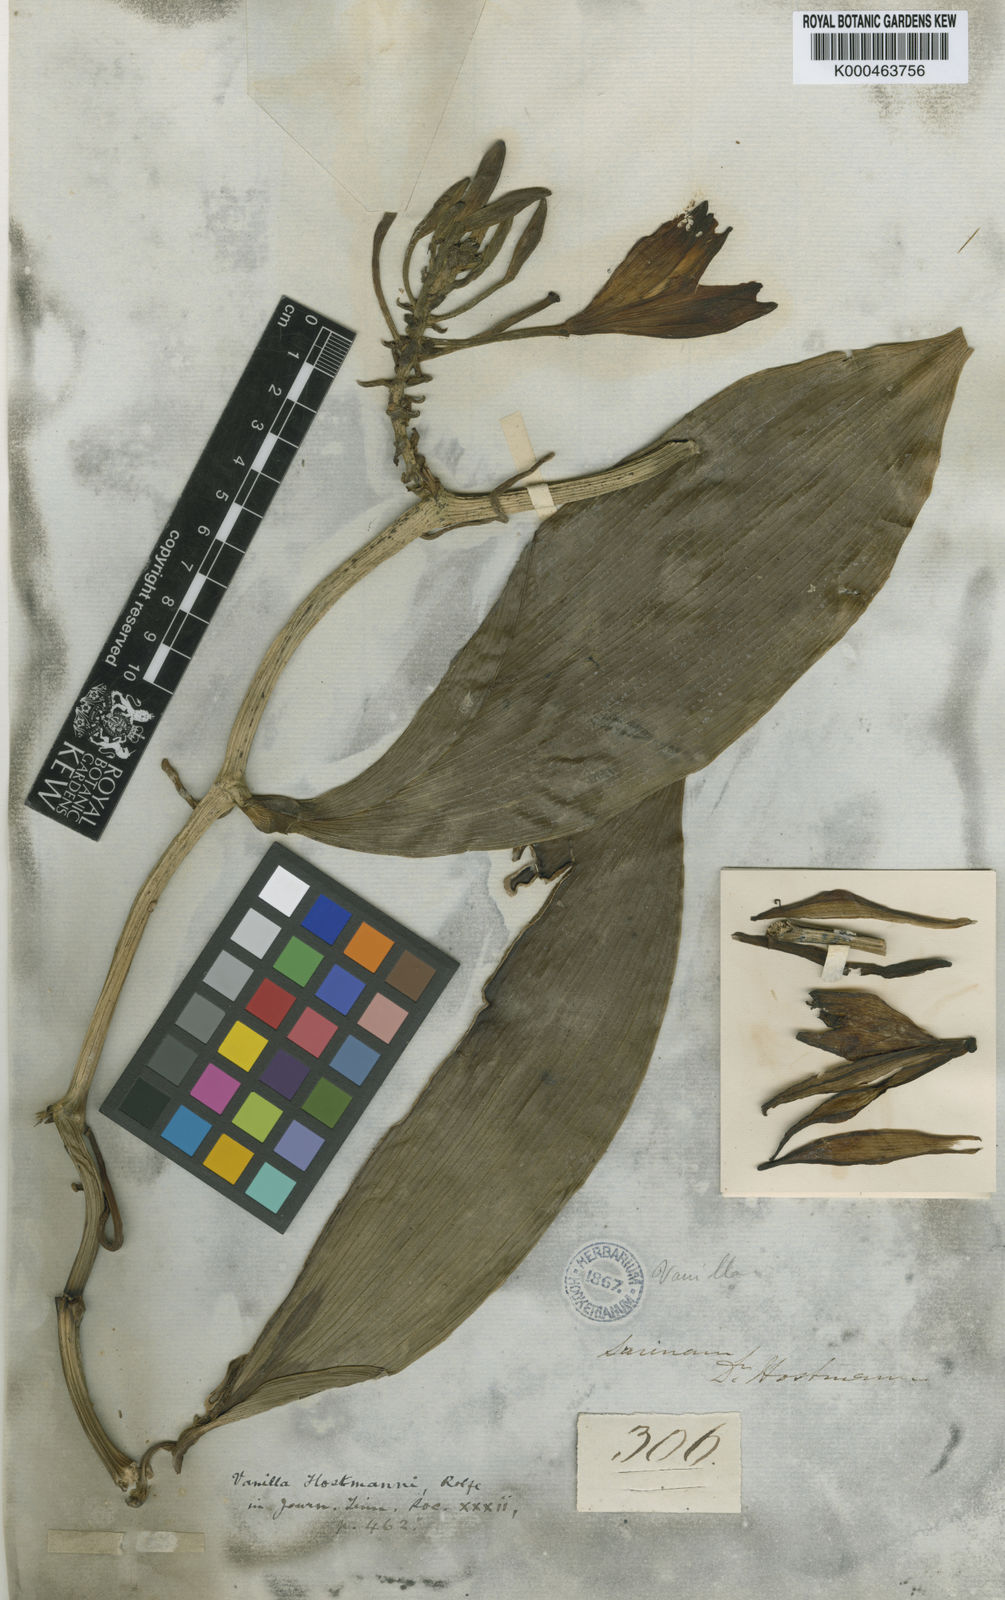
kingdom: Plantae
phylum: Tracheophyta
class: Liliopsida
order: Asparagales
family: Orchidaceae
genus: Vanilla
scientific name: Vanilla hostmannii
